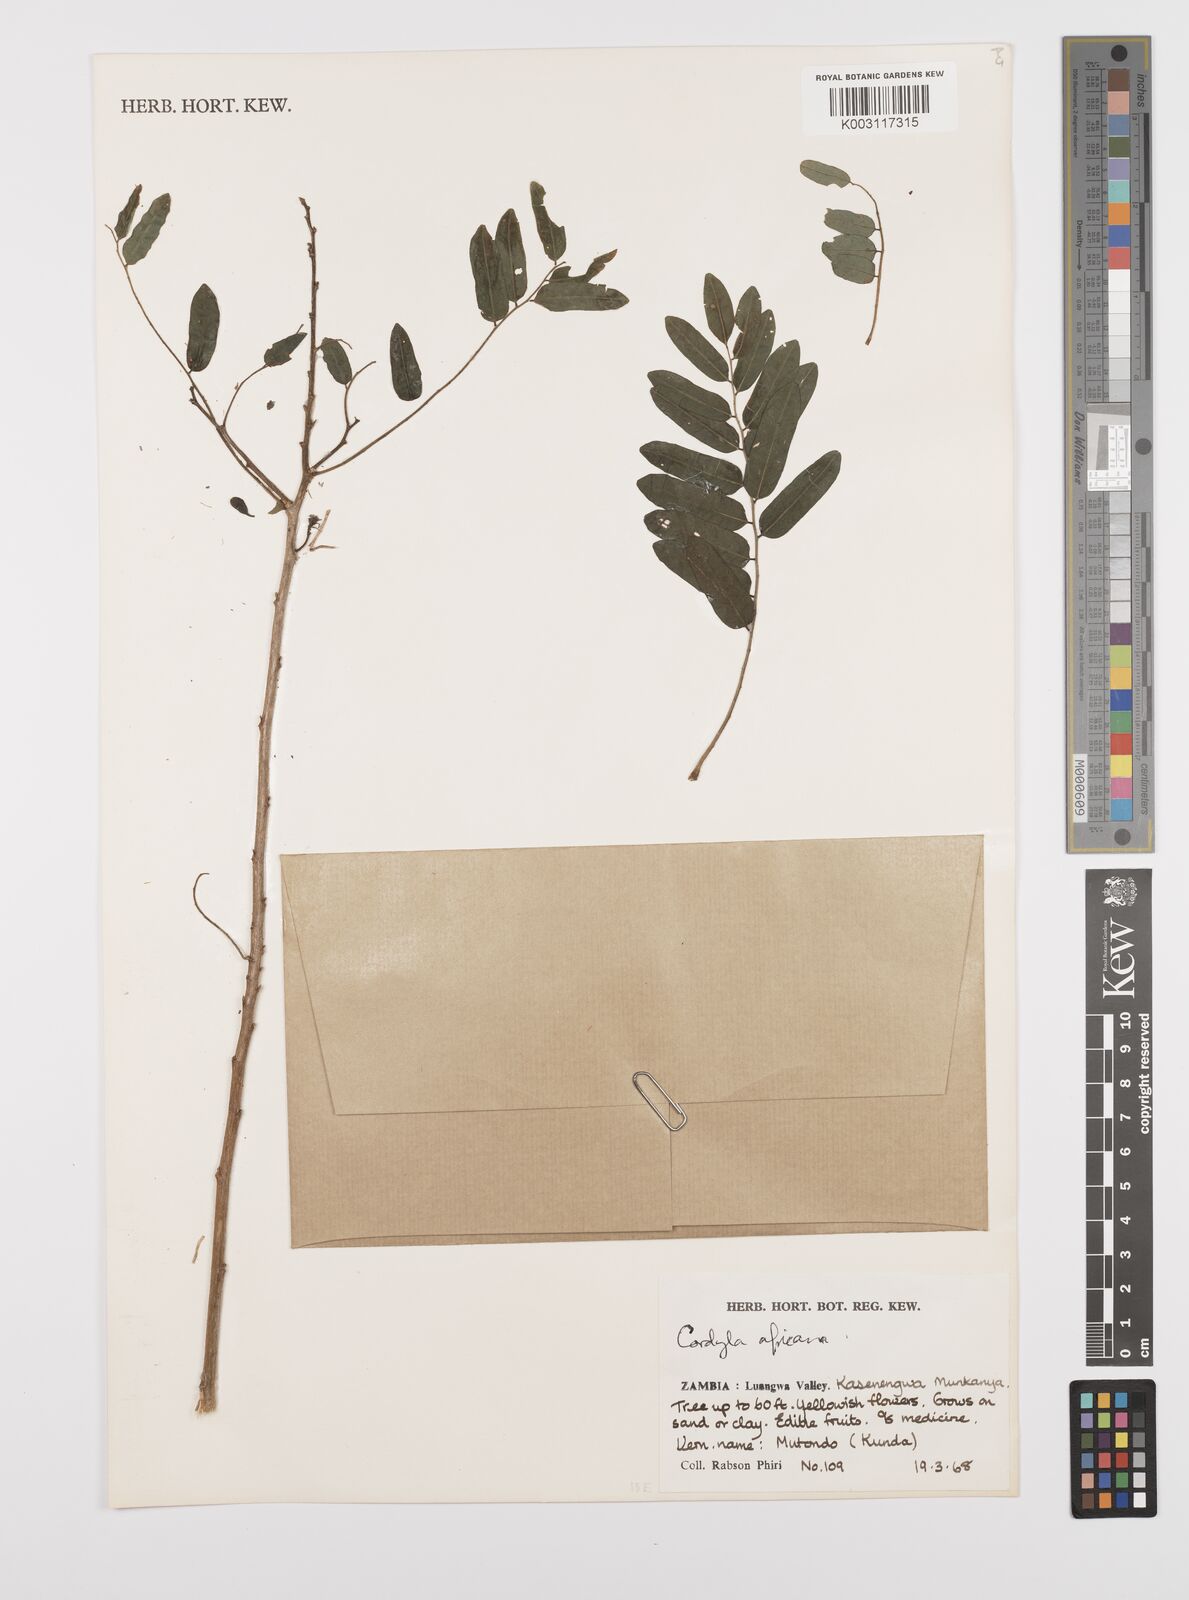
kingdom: Plantae
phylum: Tracheophyta
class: Magnoliopsida
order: Fabales
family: Fabaceae
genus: Cordyla
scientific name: Cordyla africana
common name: Wild mango
